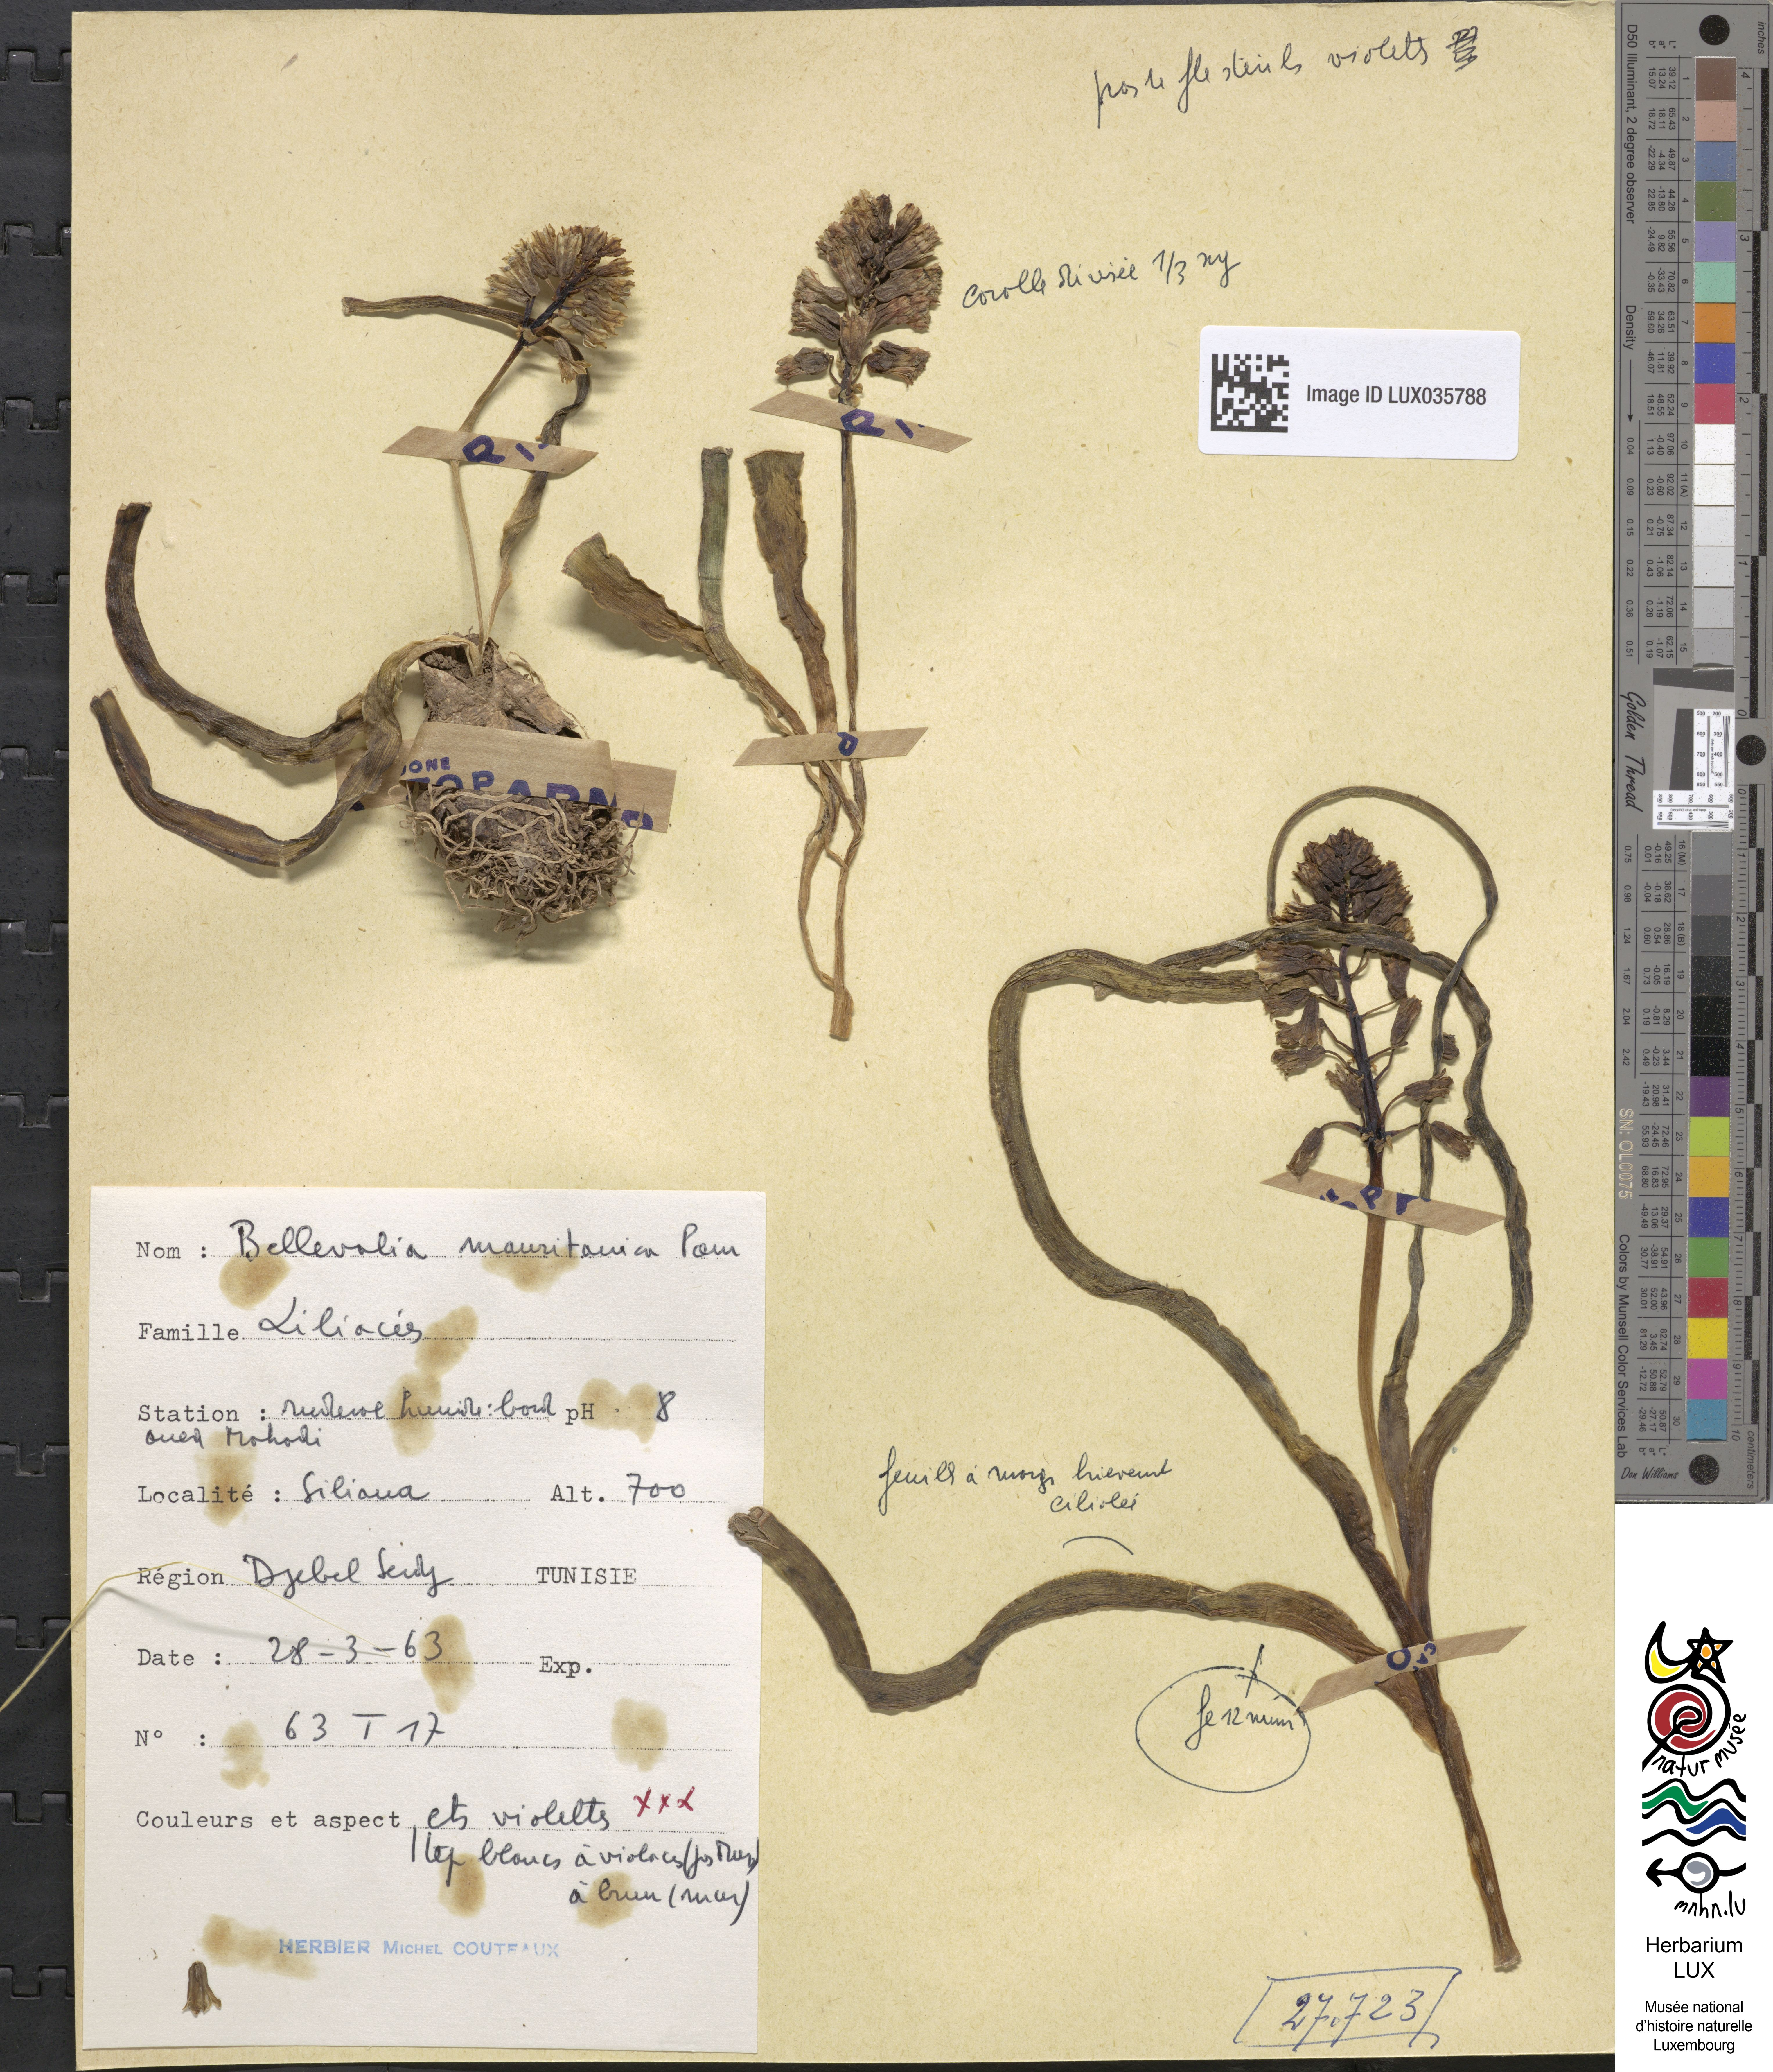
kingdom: Plantae
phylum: Tracheophyta
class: Liliopsida
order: Asparagales
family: Asparagaceae
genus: Bellevalia
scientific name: Bellevalia mauritanica
